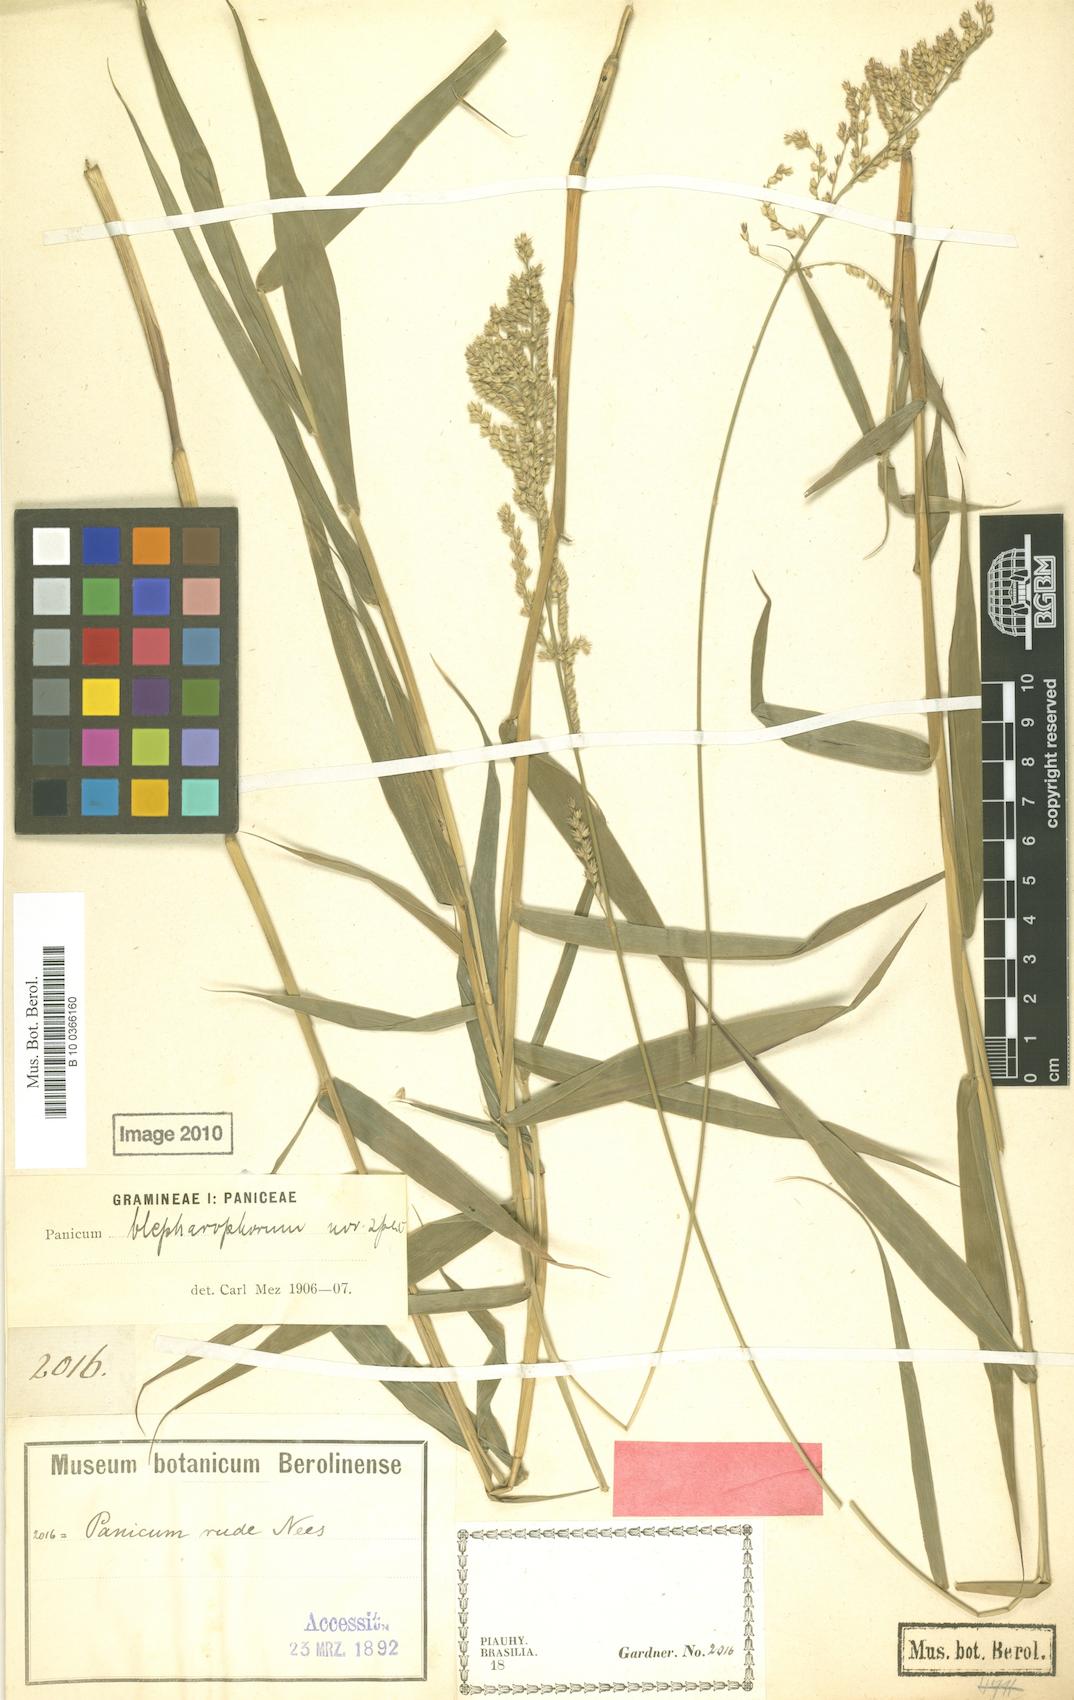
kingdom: Plantae
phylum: Tracheophyta
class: Liliopsida
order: Poales
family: Poaceae
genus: Ocellochloa
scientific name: Ocellochloa gardneri
